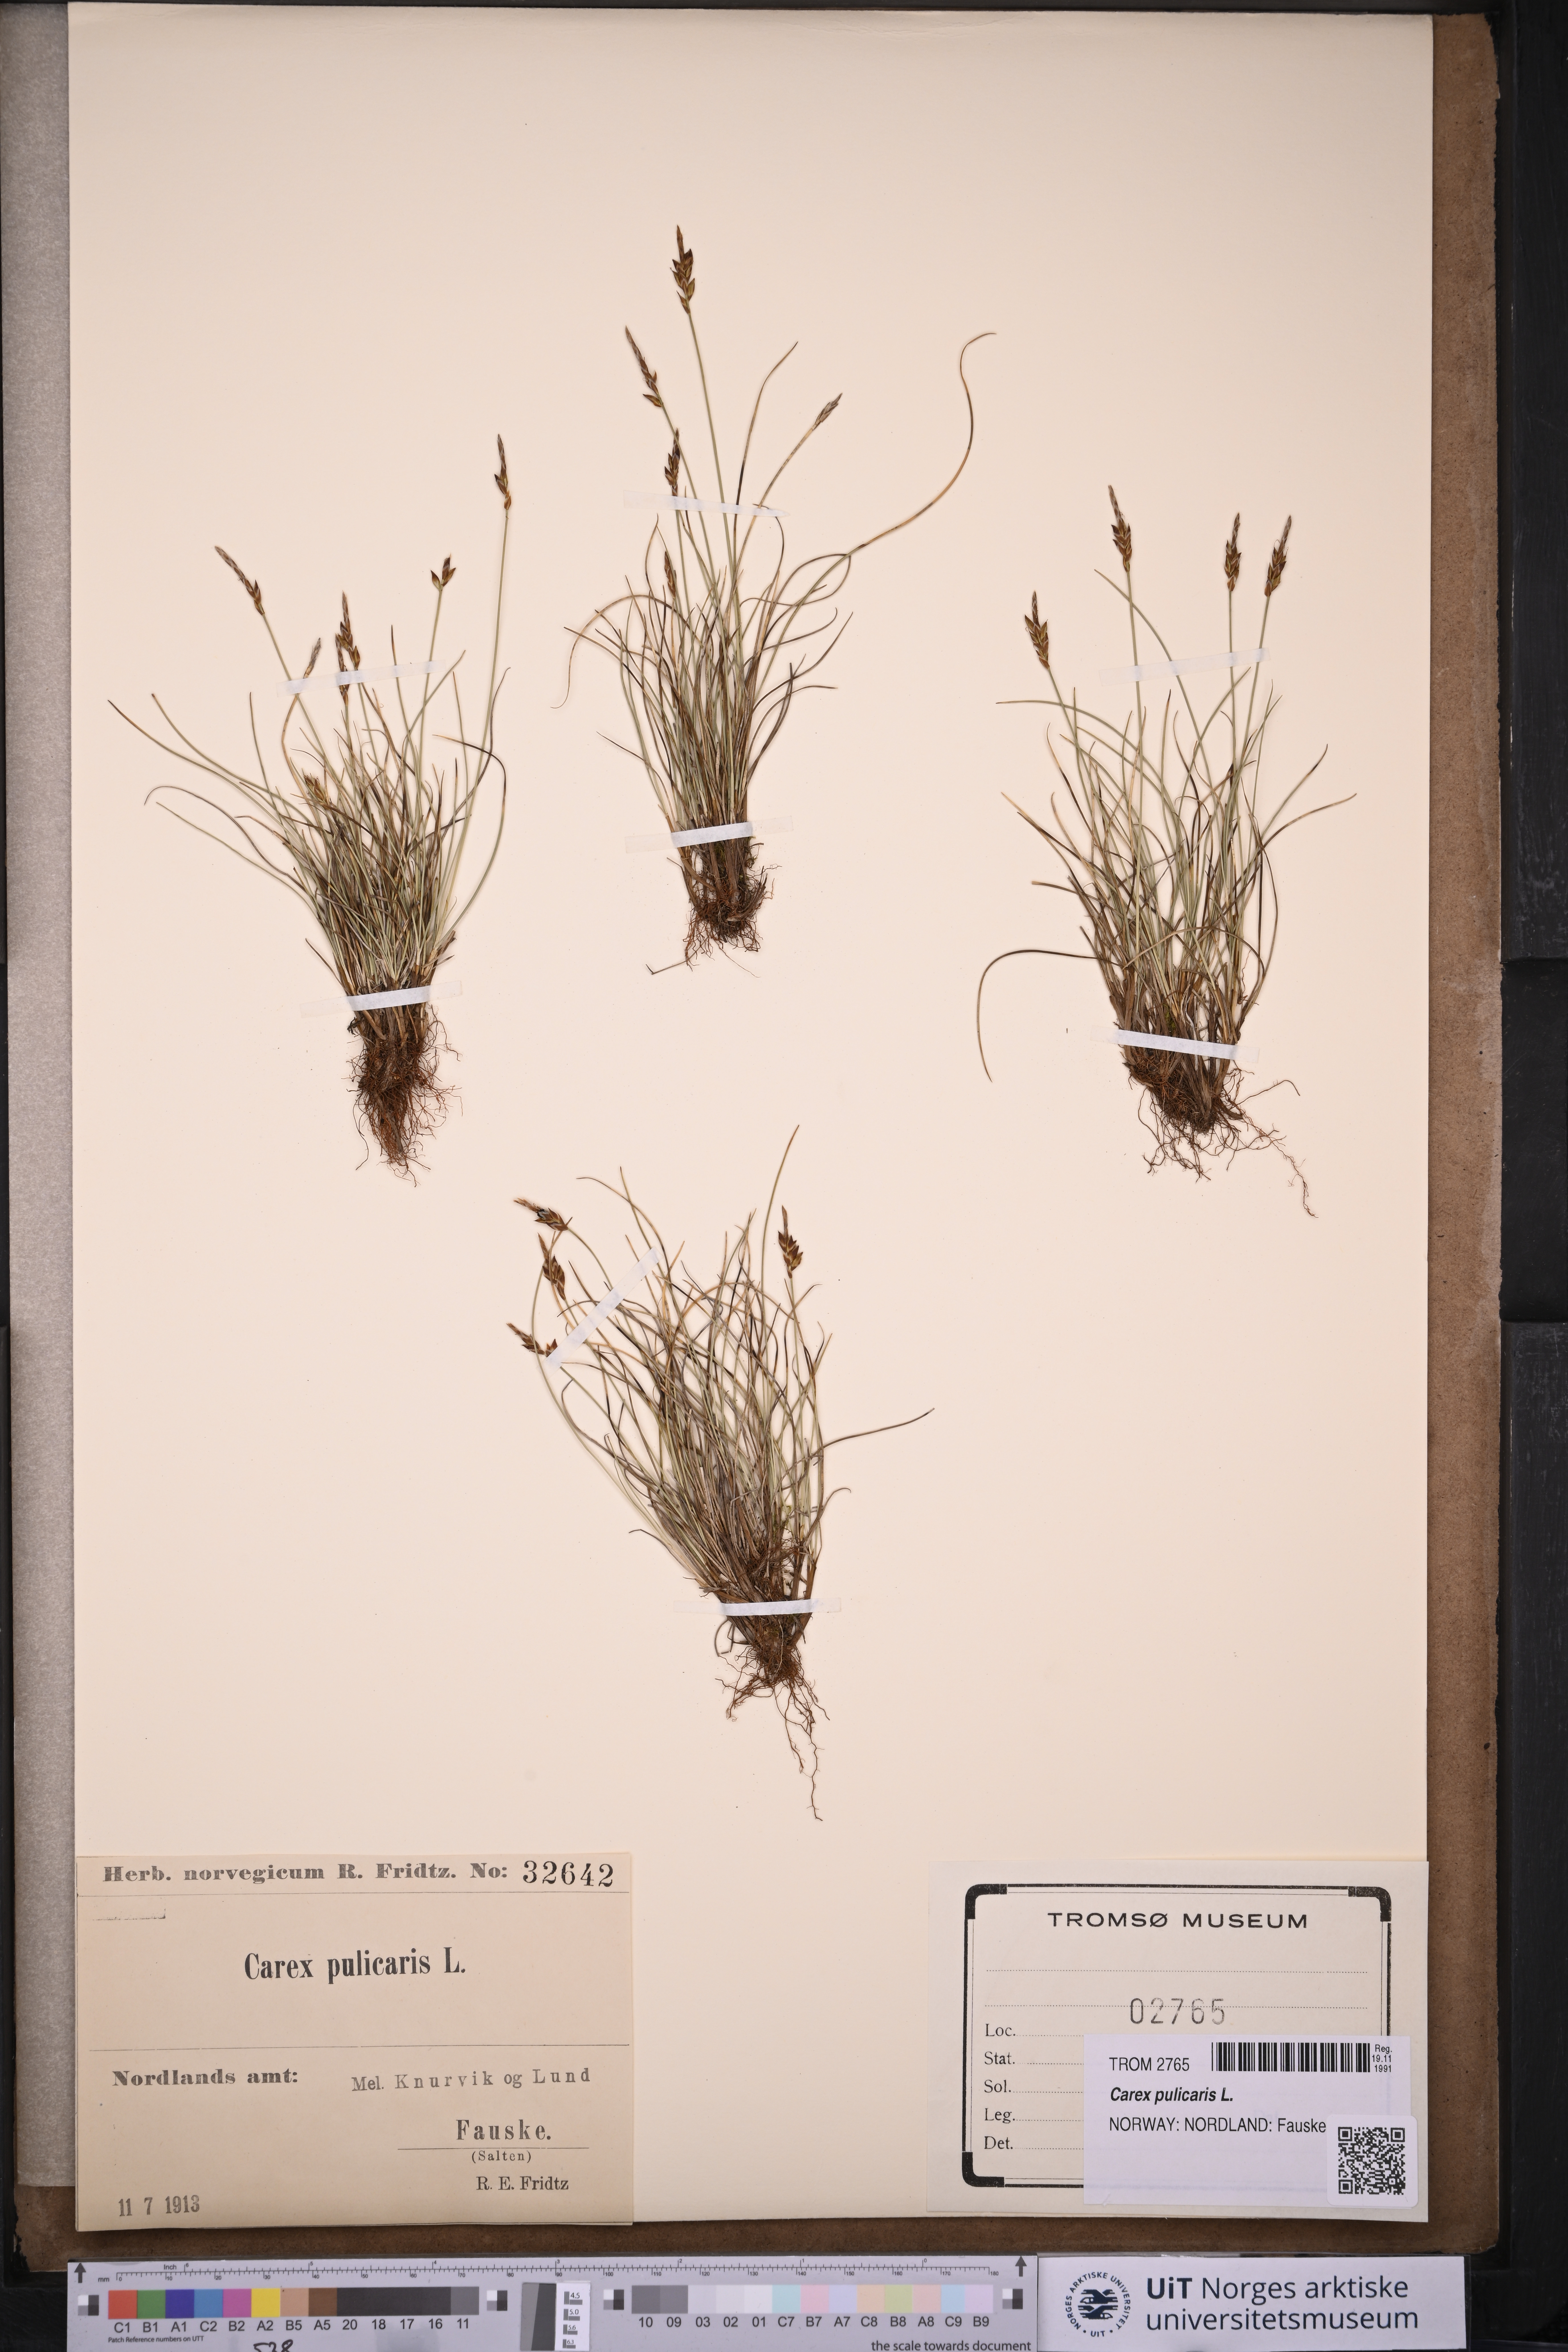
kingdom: Plantae
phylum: Tracheophyta
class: Liliopsida
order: Poales
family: Cyperaceae
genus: Carex
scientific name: Carex pulicaris
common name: Flea sedge
